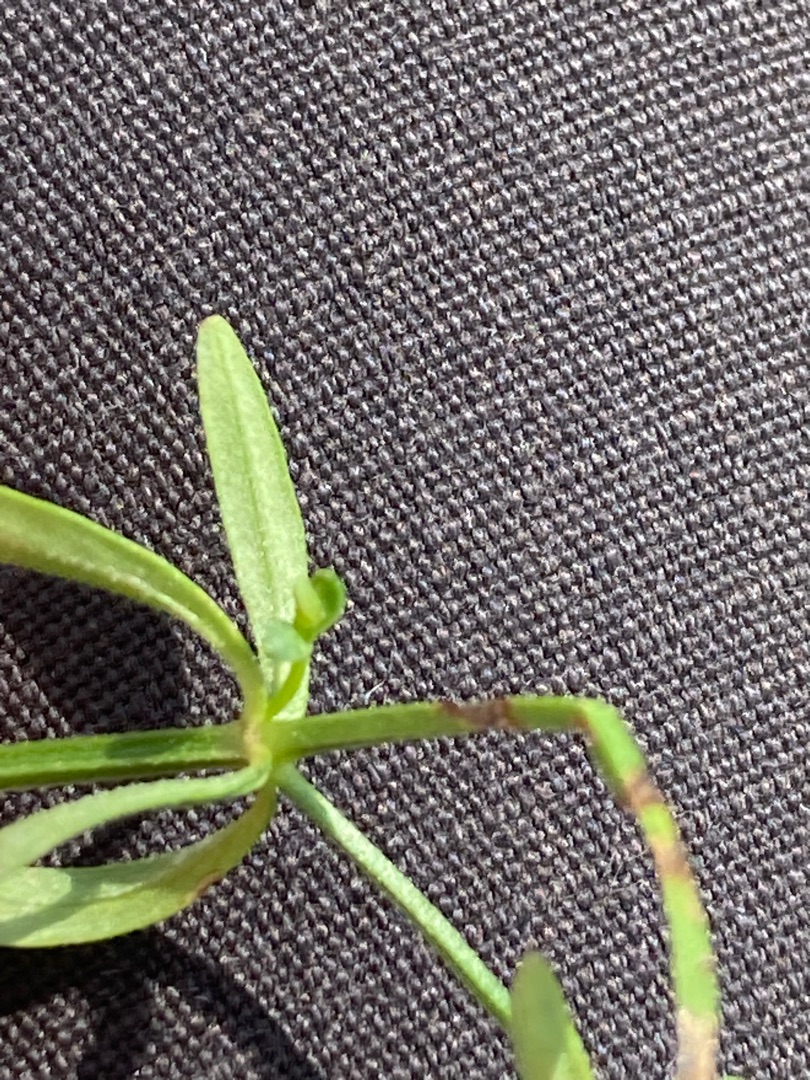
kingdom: Plantae
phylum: Tracheophyta
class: Magnoliopsida
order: Gentianales
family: Rubiaceae
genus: Galium
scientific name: Galium palustre
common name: Kær-snerre
